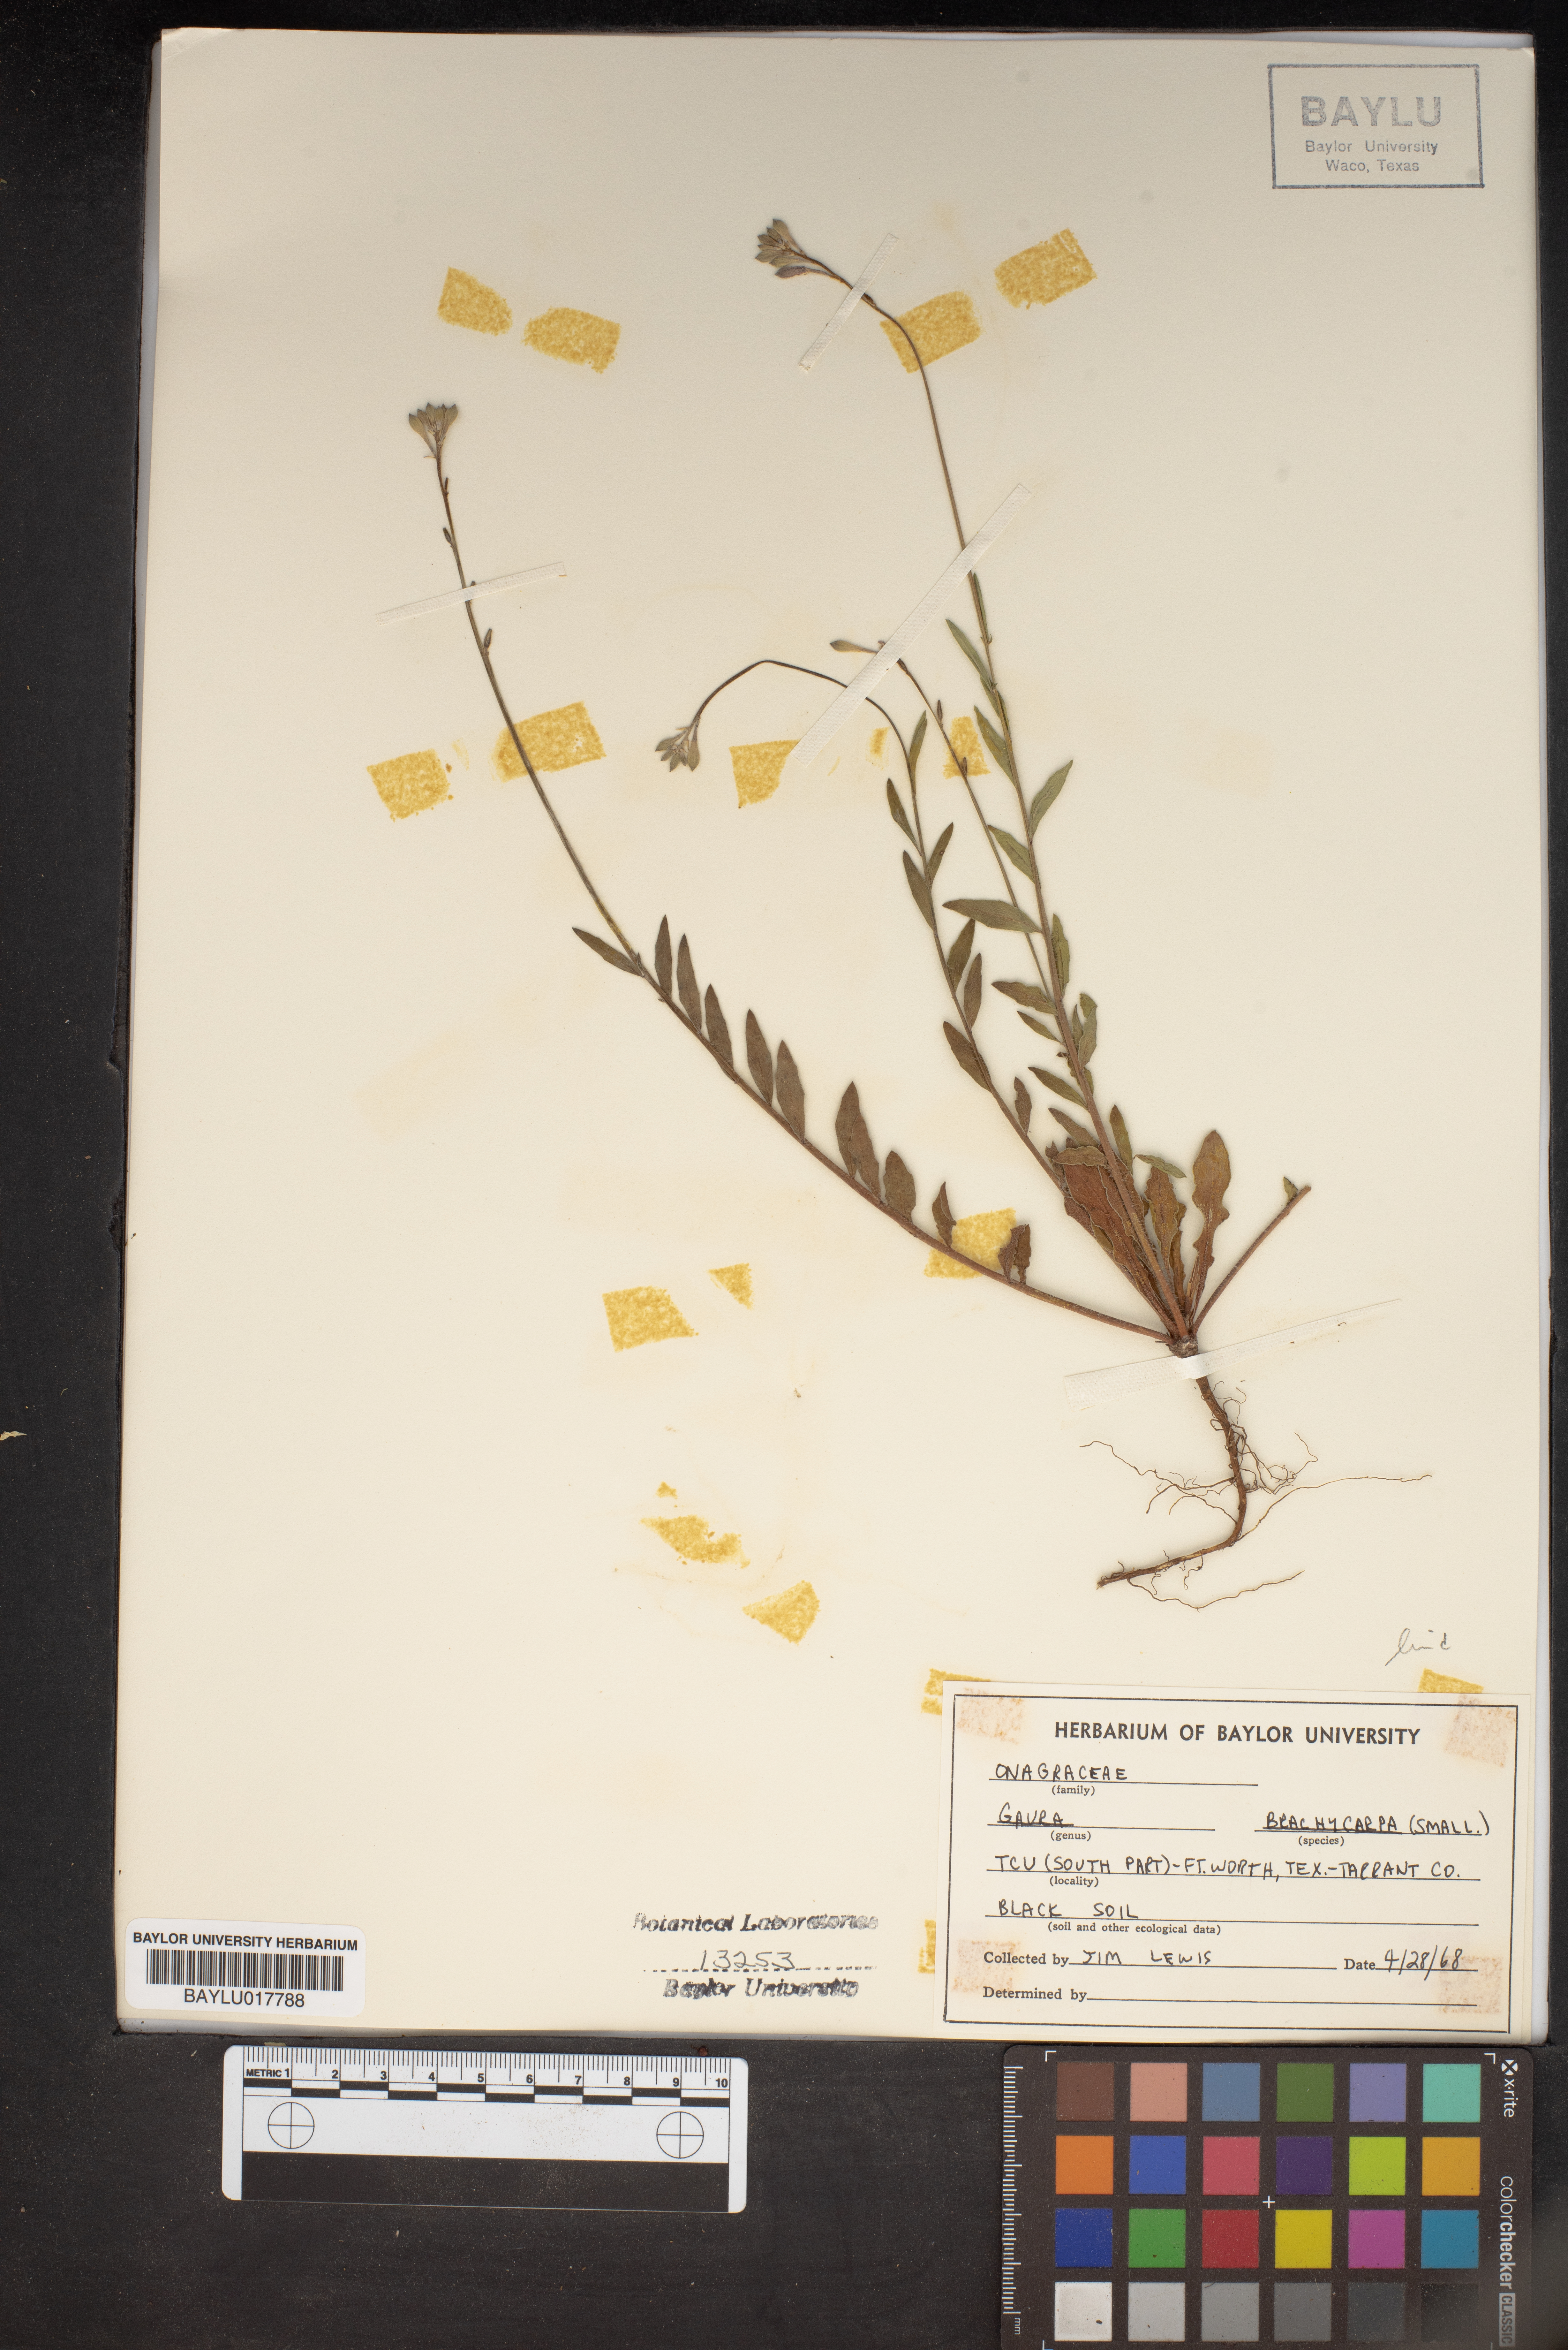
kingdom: Plantae
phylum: Tracheophyta
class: Magnoliopsida
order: Myrtales
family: Onagraceae
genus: Oenothera
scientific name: Oenothera patriciae
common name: Plains beeblossom
